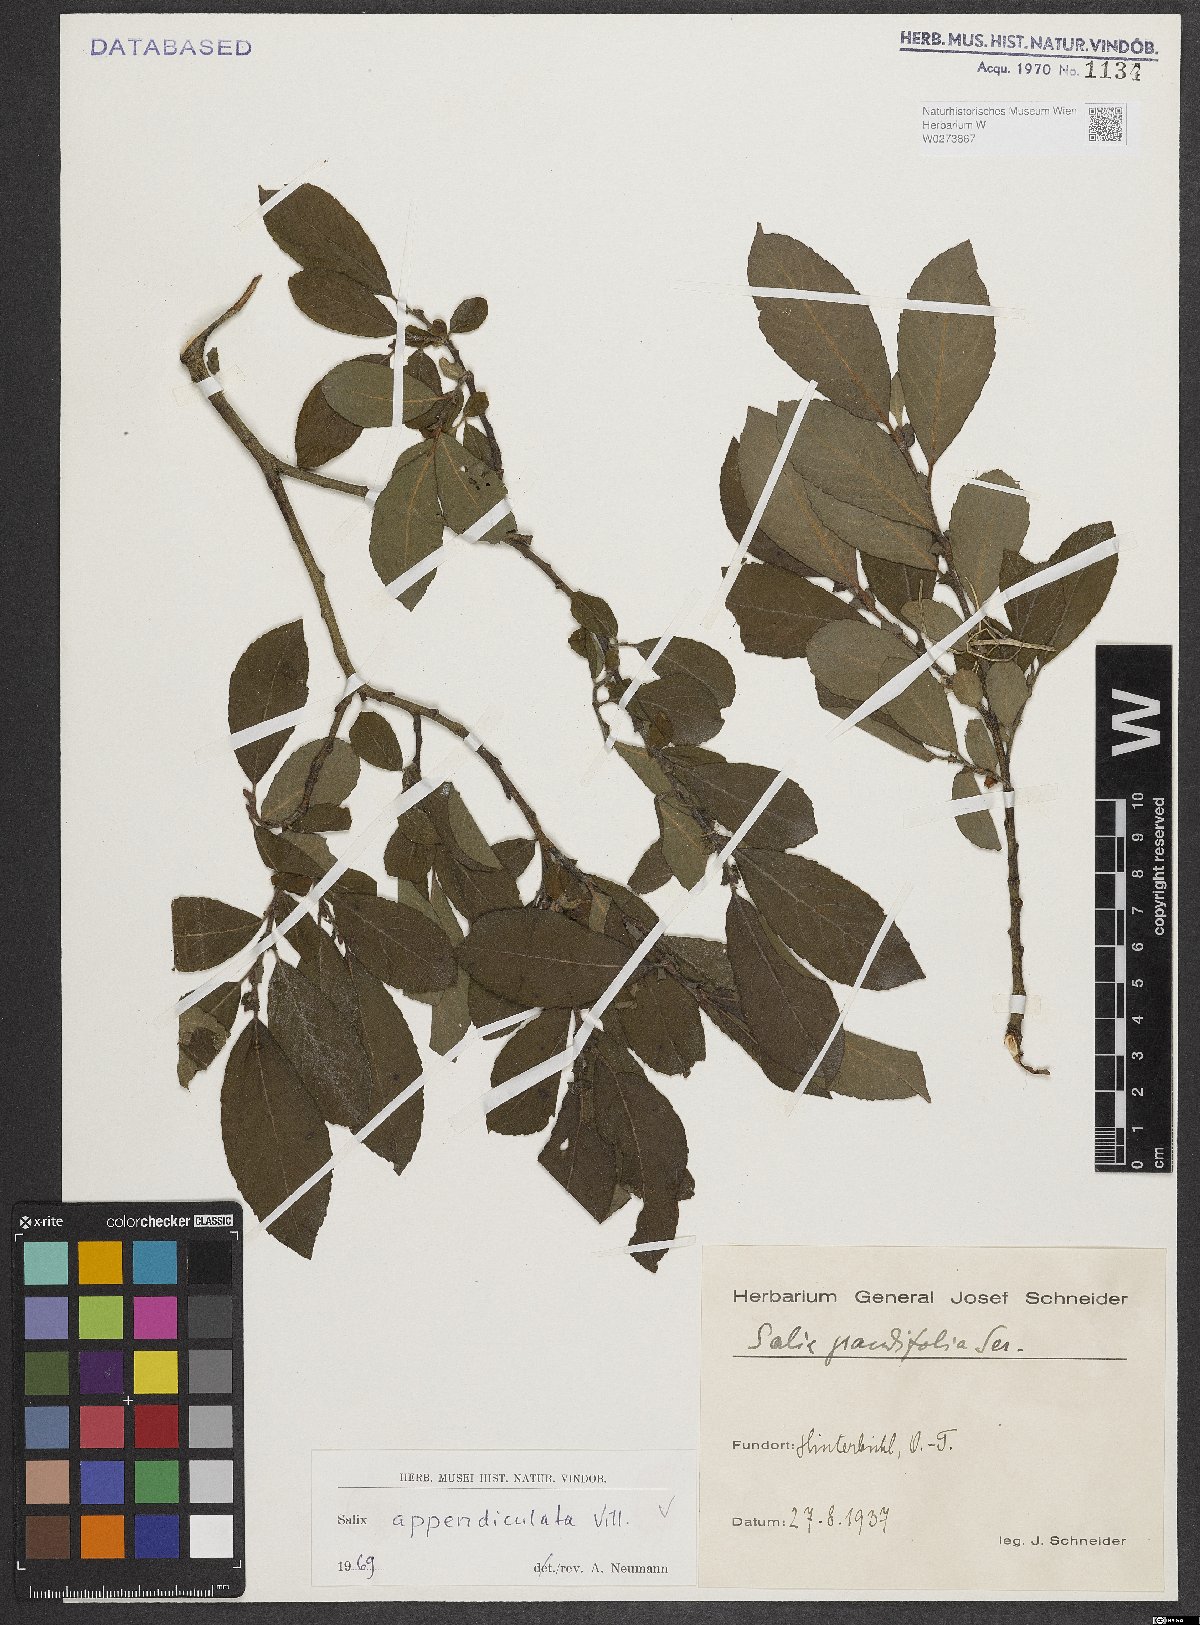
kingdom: Plantae
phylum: Tracheophyta
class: Magnoliopsida
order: Malpighiales
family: Salicaceae
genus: Salix
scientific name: Salix appendiculata
